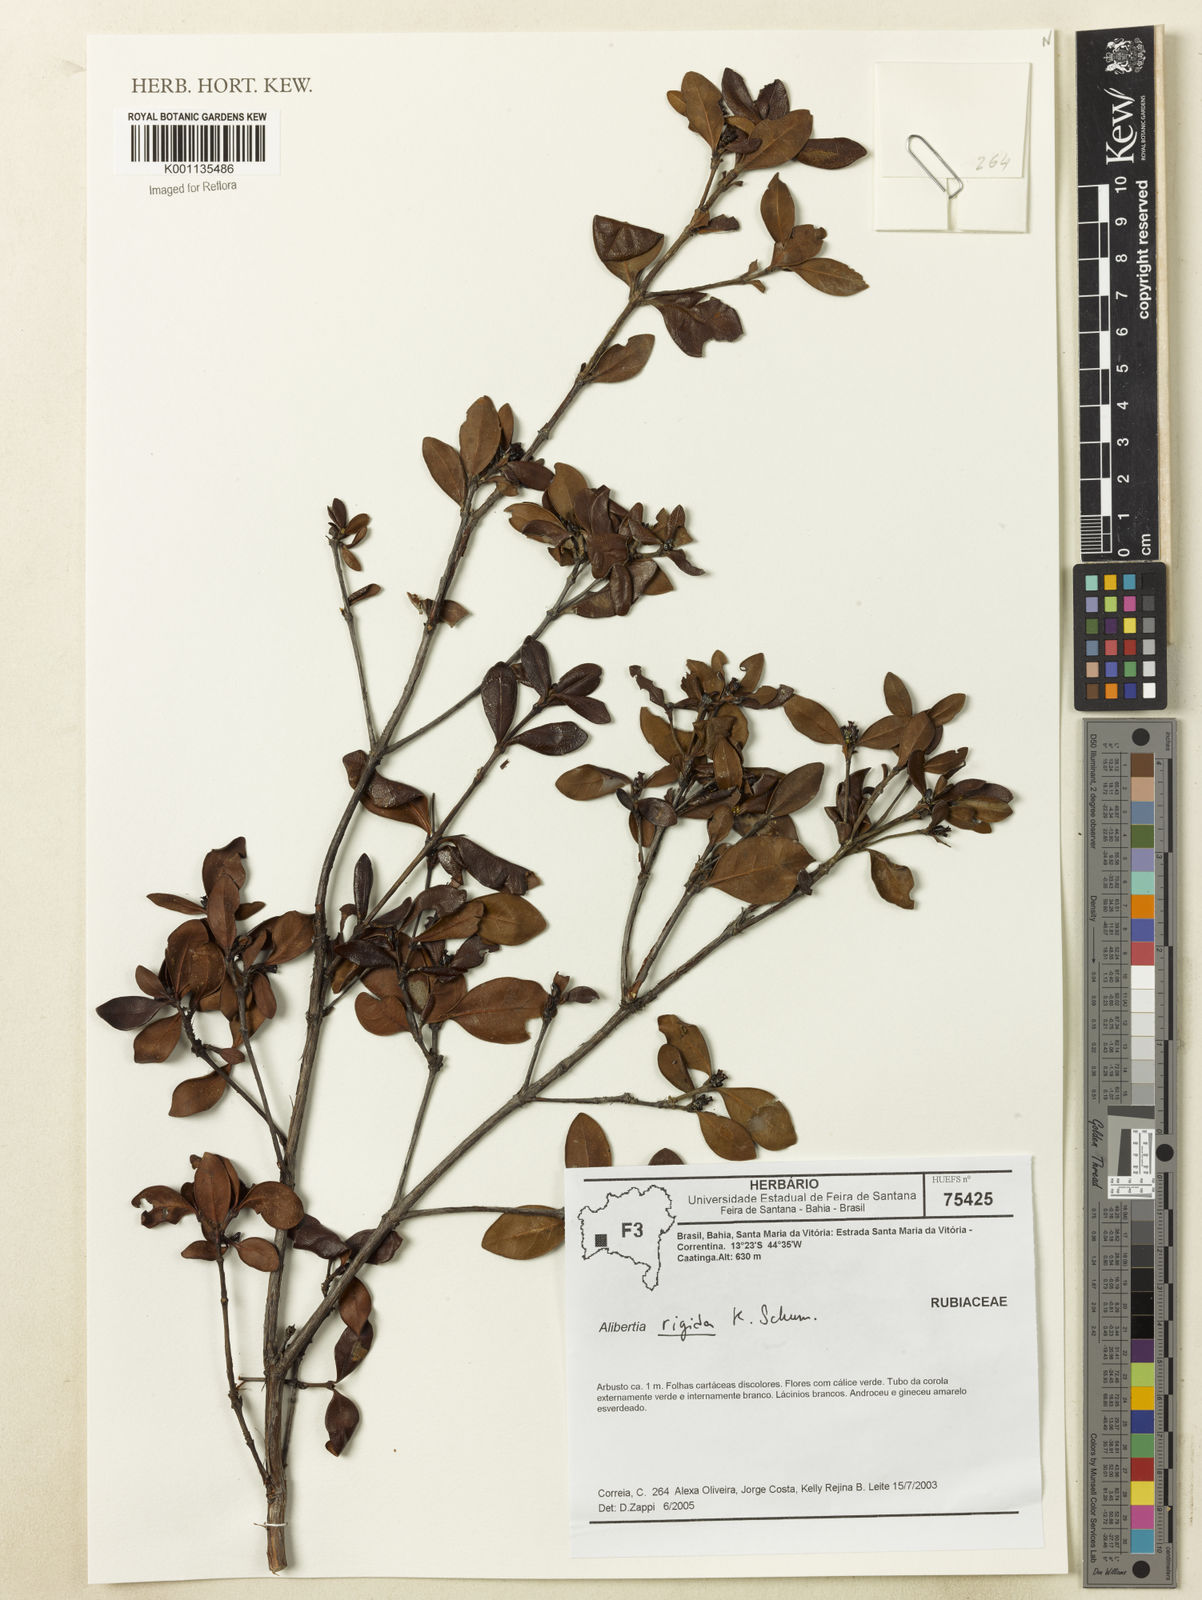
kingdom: Plantae
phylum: Tracheophyta
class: Magnoliopsida
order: Gentianales
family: Rubiaceae
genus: Cordiera
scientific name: Cordiera rigida
